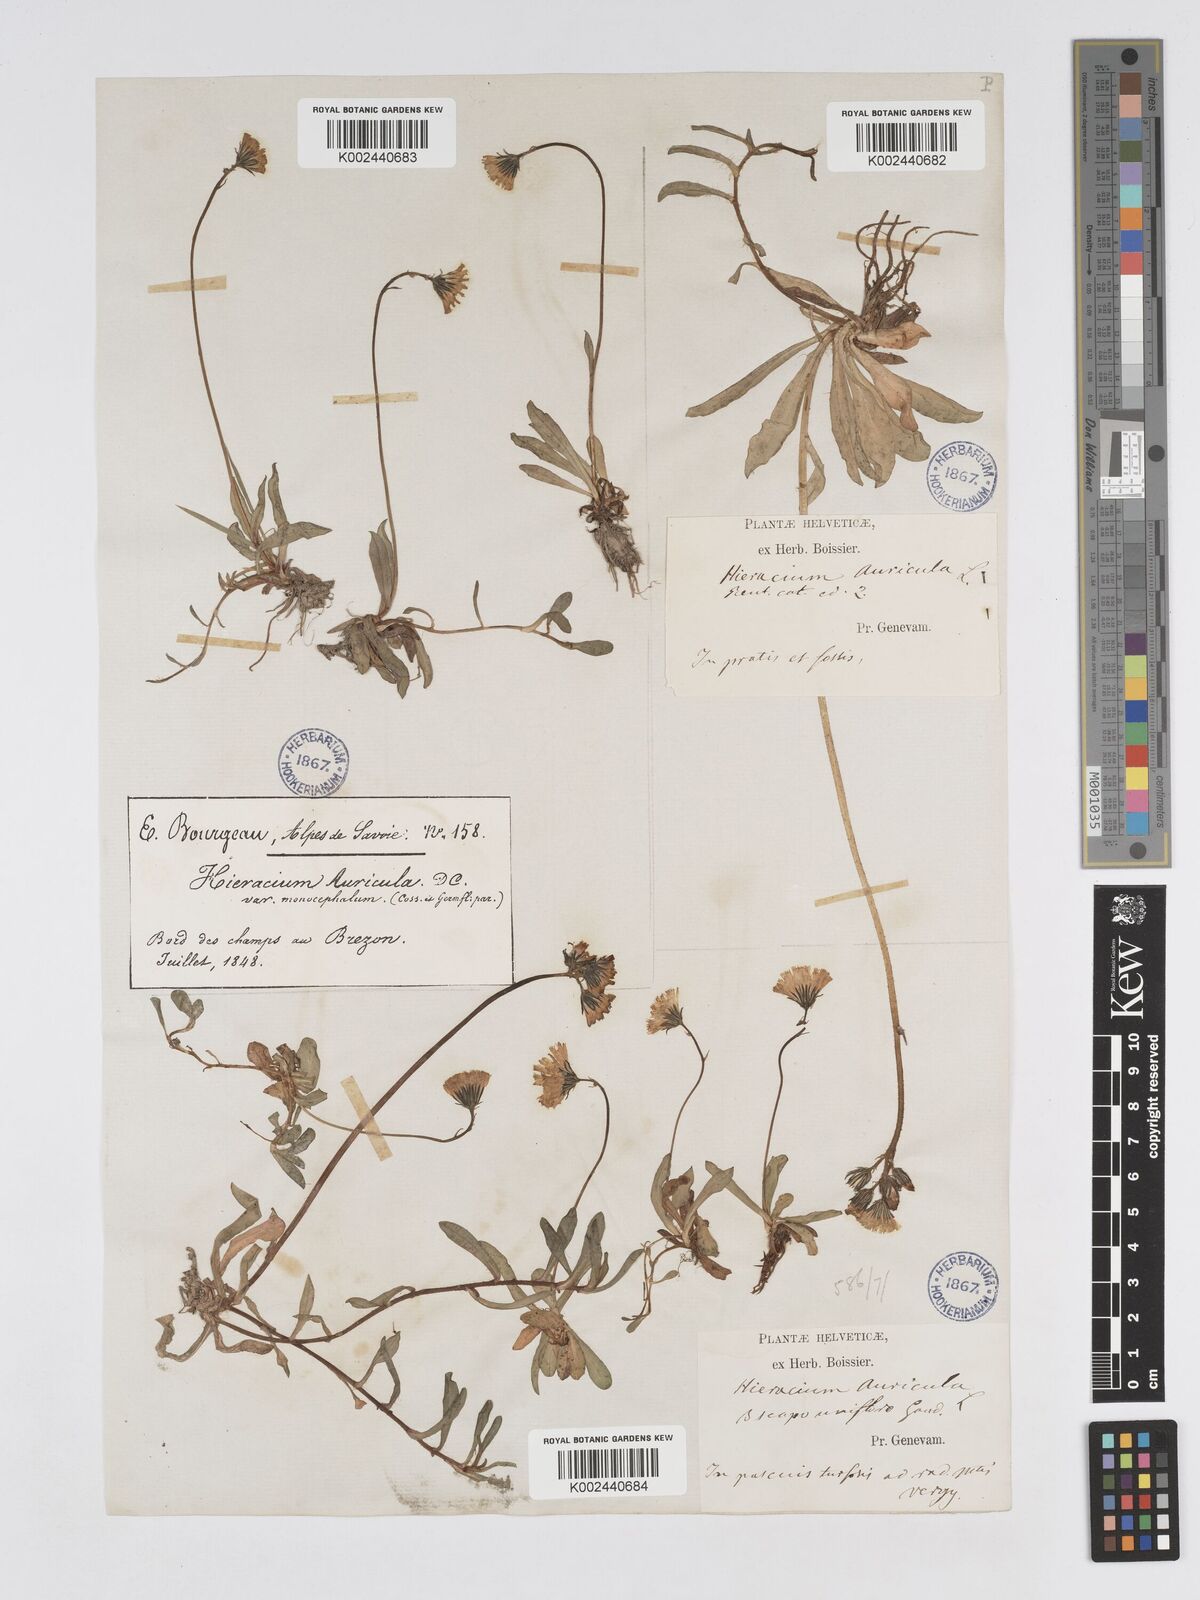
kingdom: Plantae
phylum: Tracheophyta
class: Magnoliopsida
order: Asterales
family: Asteraceae
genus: Pilosella
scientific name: Pilosella floribunda
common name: Glaucous hawkweed
